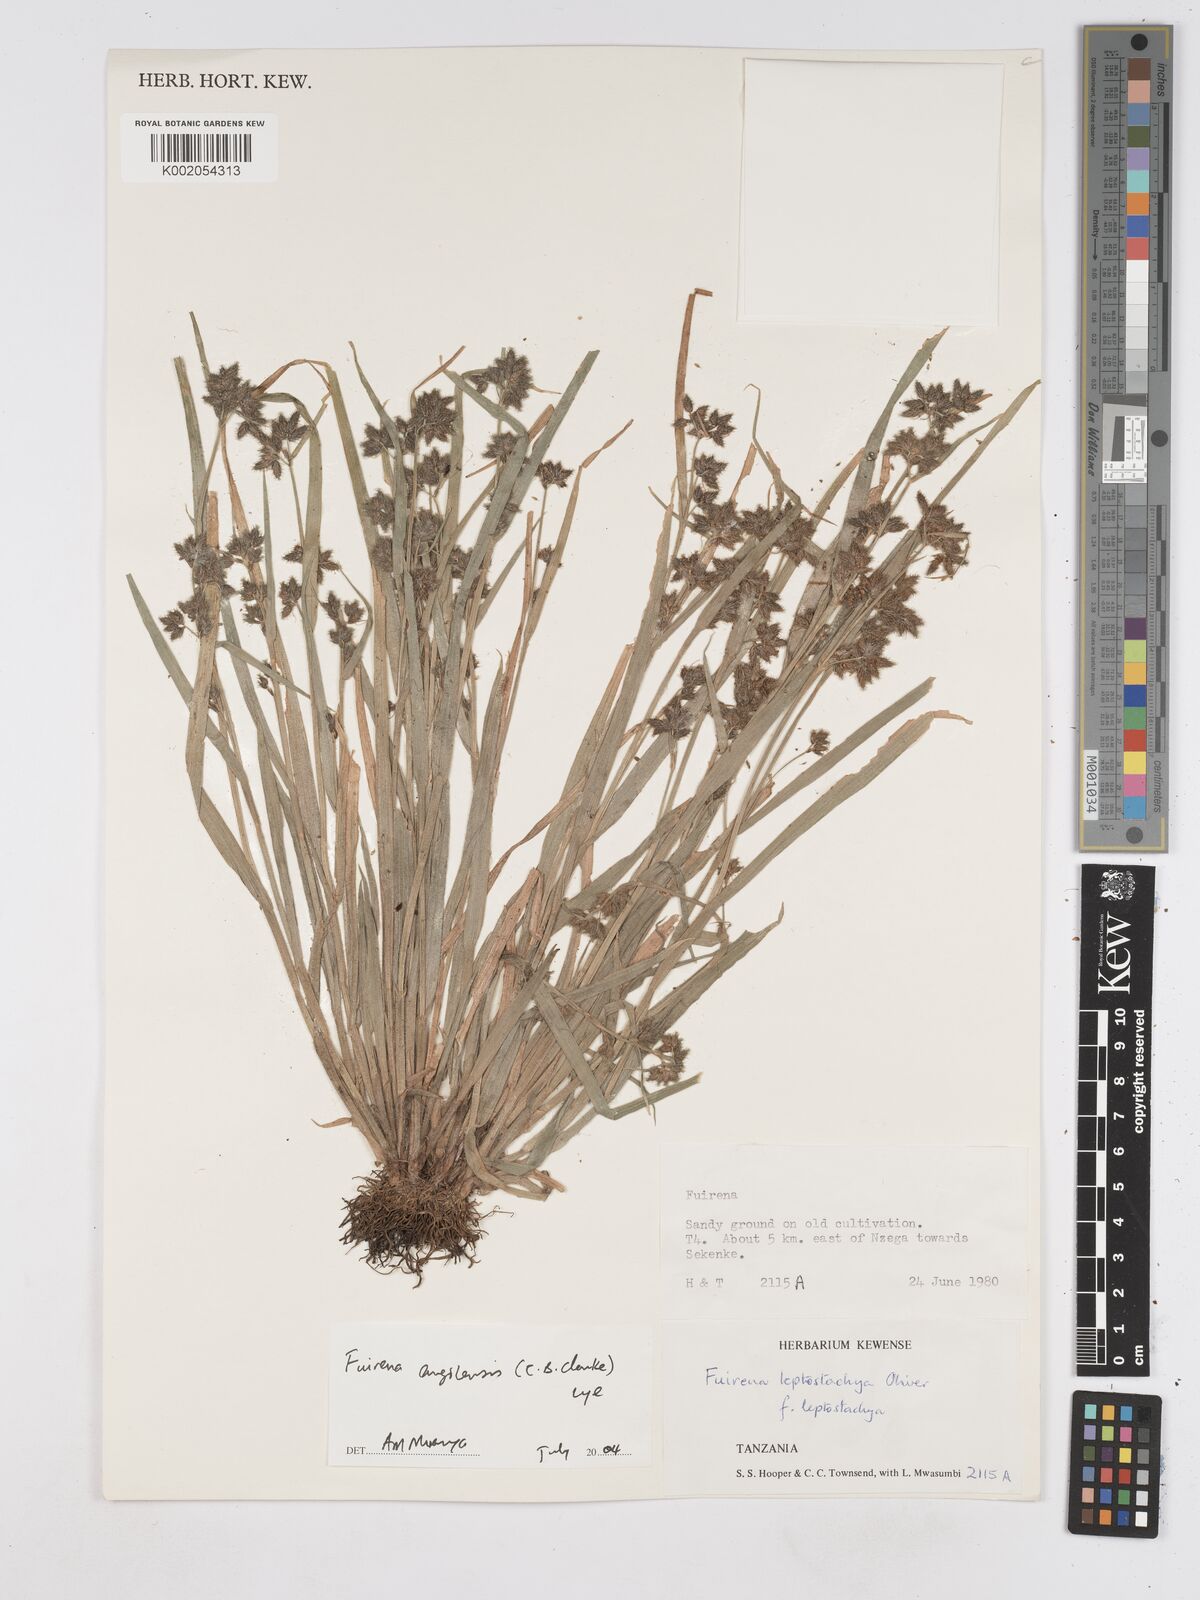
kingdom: Plantae
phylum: Tracheophyta
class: Liliopsida
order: Poales
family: Cyperaceae
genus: Fuirena
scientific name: Fuirena angolensis
